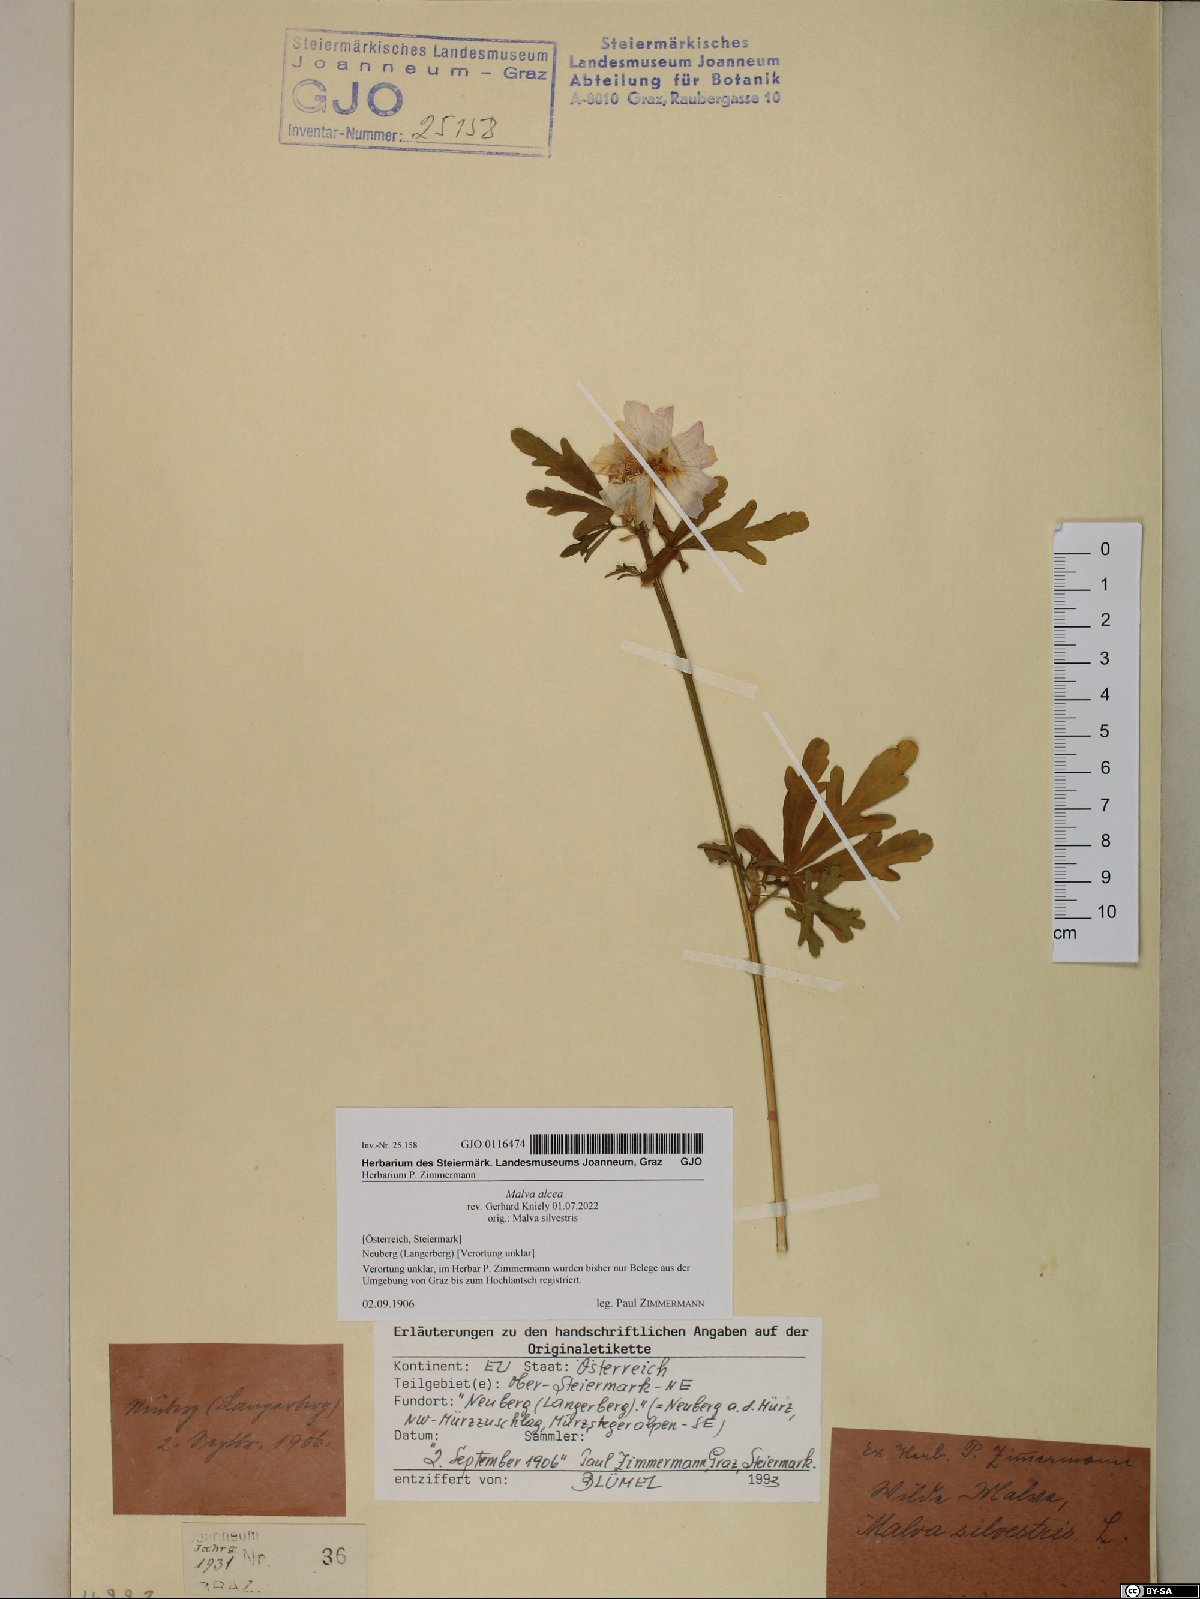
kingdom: Plantae
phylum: Tracheophyta
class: Magnoliopsida
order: Malvales
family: Malvaceae
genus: Malva
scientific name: Malva alcea
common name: Greater musk-mallow
